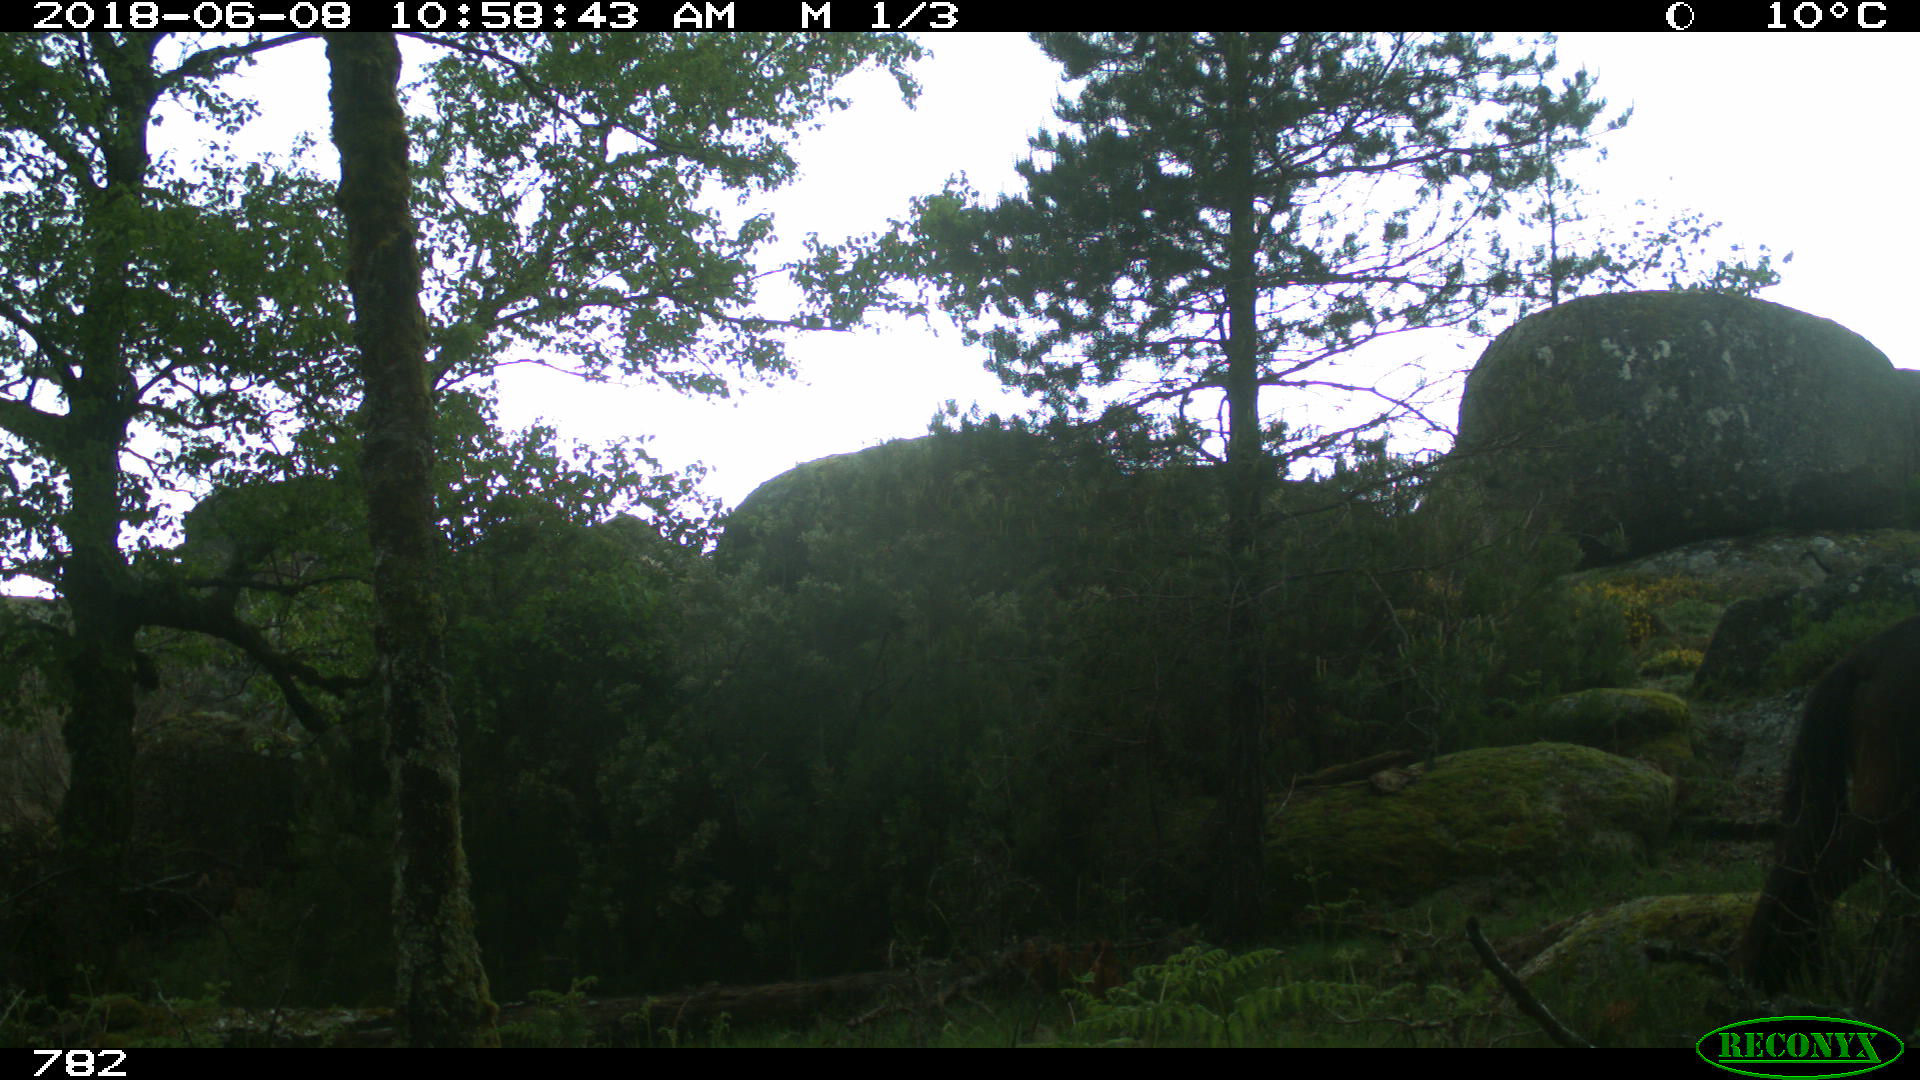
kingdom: Animalia
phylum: Chordata
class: Mammalia
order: Perissodactyla
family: Equidae
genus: Equus
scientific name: Equus caballus
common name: Horse
